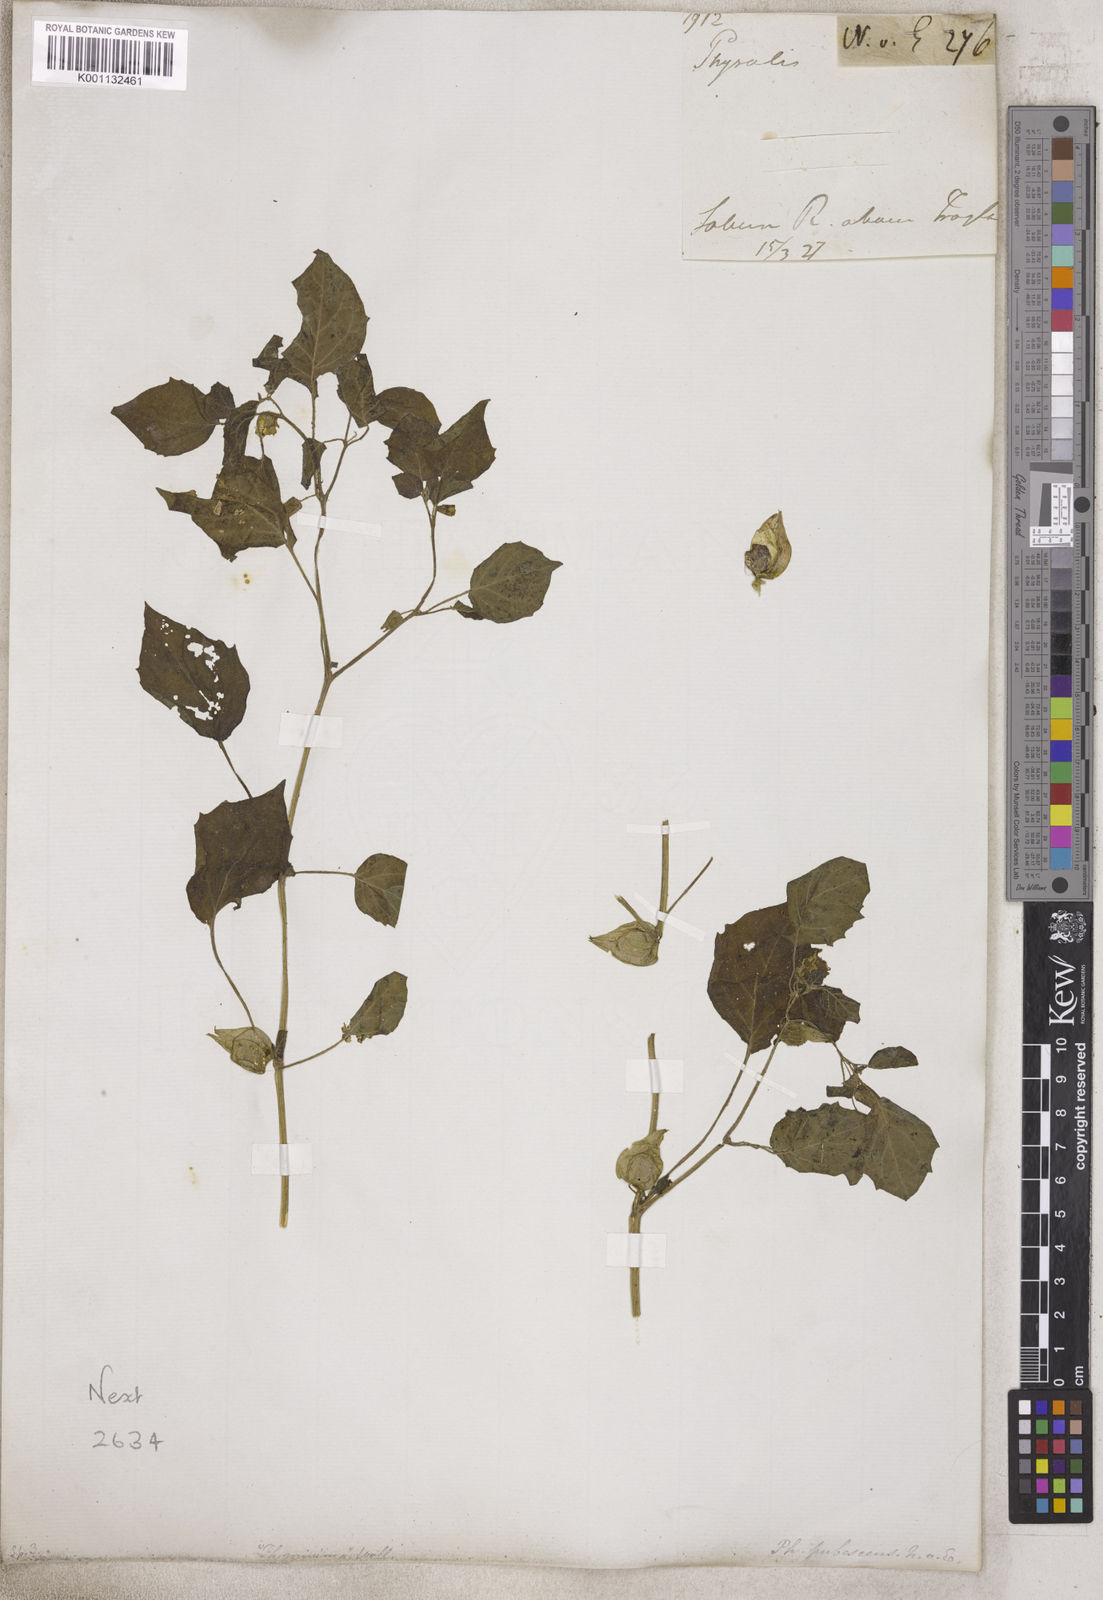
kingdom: Plantae
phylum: Tracheophyta
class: Magnoliopsida
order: Solanales
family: Solanaceae
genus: Physalis
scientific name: Physalis
